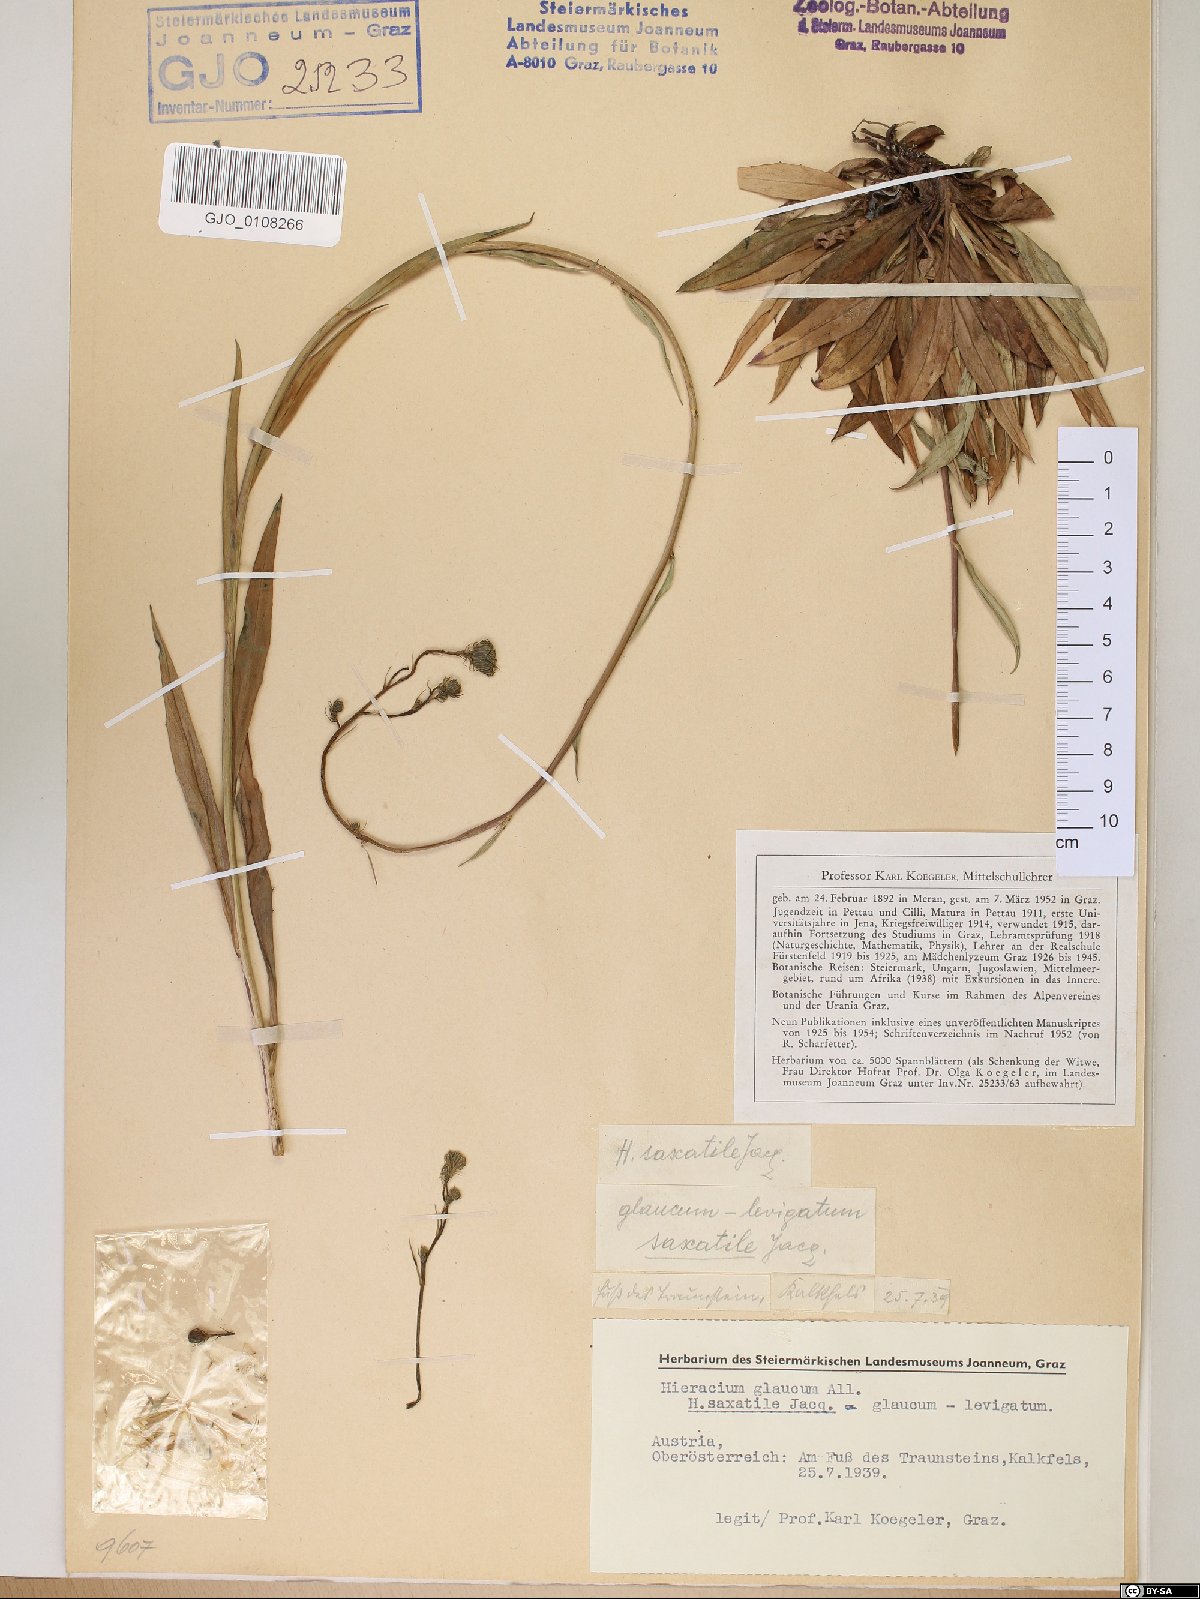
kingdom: Plantae
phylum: Tracheophyta
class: Magnoliopsida
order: Asterales
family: Asteraceae
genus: Hieracium
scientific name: Hieracium saxatile
